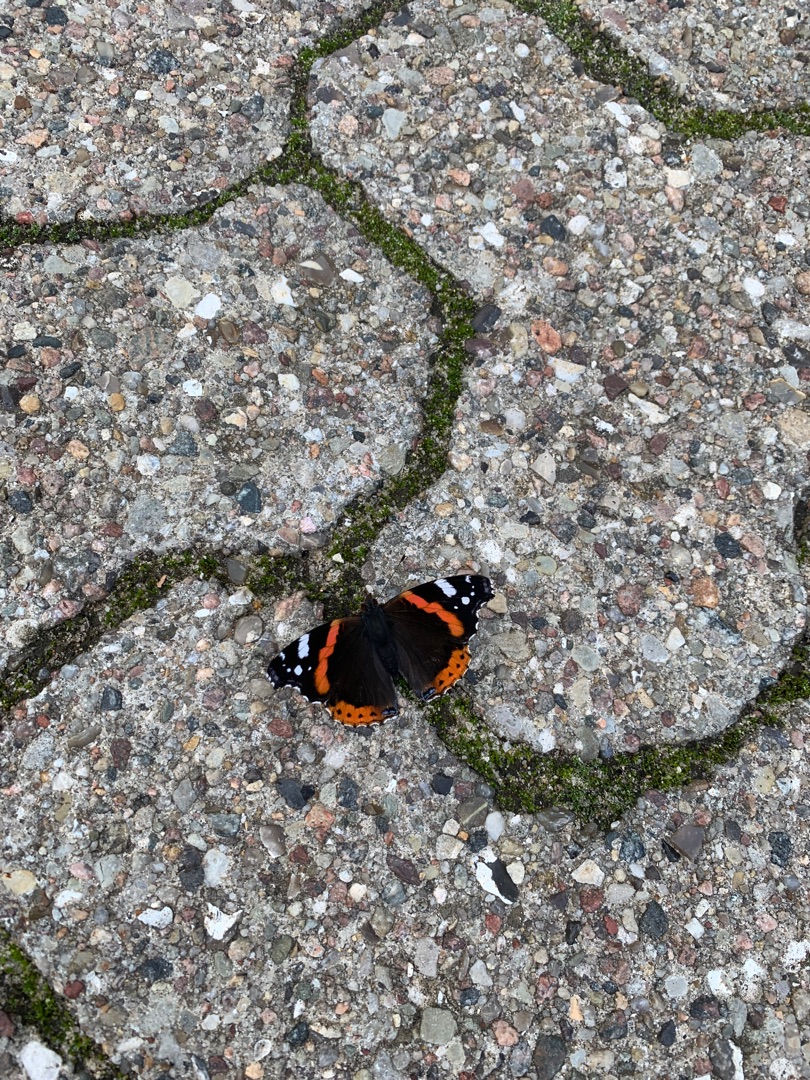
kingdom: Animalia
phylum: Arthropoda
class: Insecta
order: Lepidoptera
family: Nymphalidae
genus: Vanessa
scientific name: Vanessa atalanta
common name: Admiral
